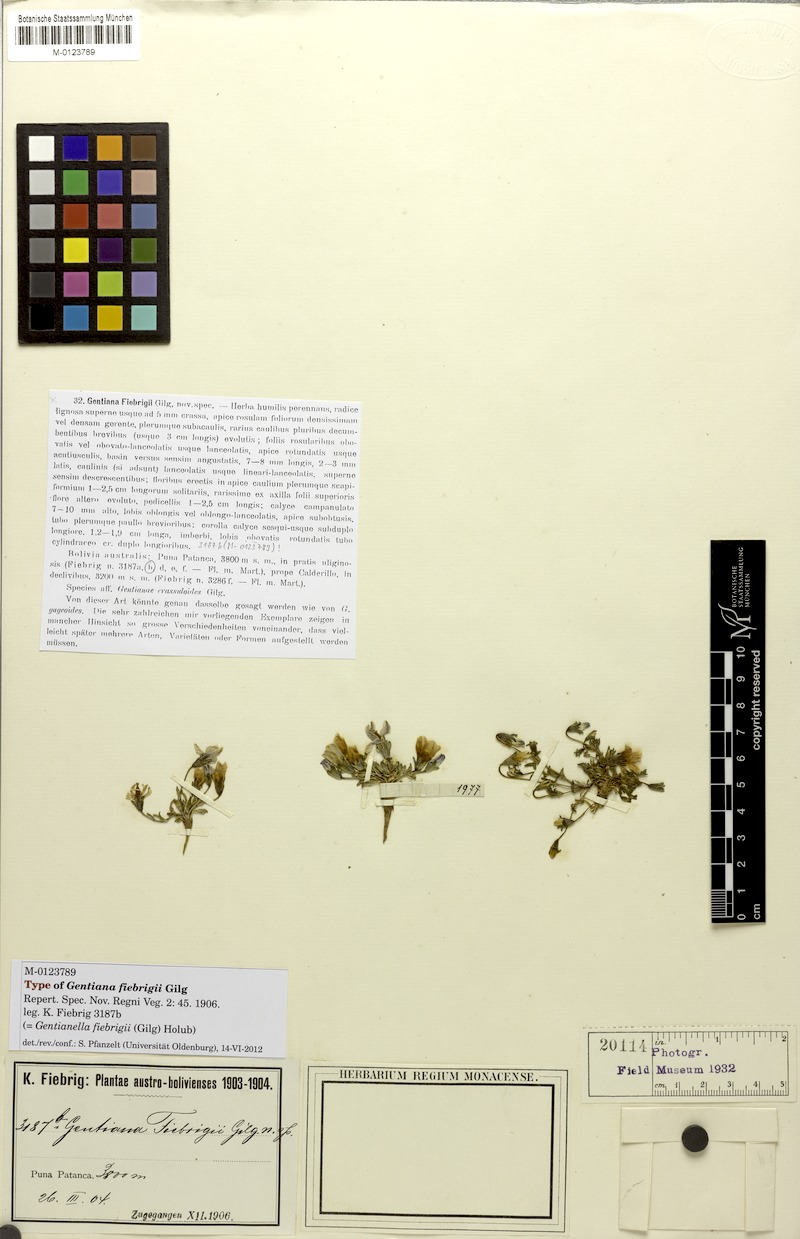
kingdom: Plantae
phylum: Tracheophyta
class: Magnoliopsida
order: Gentianales
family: Gentianaceae
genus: Gentianella
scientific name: Gentianella fiebrigii
